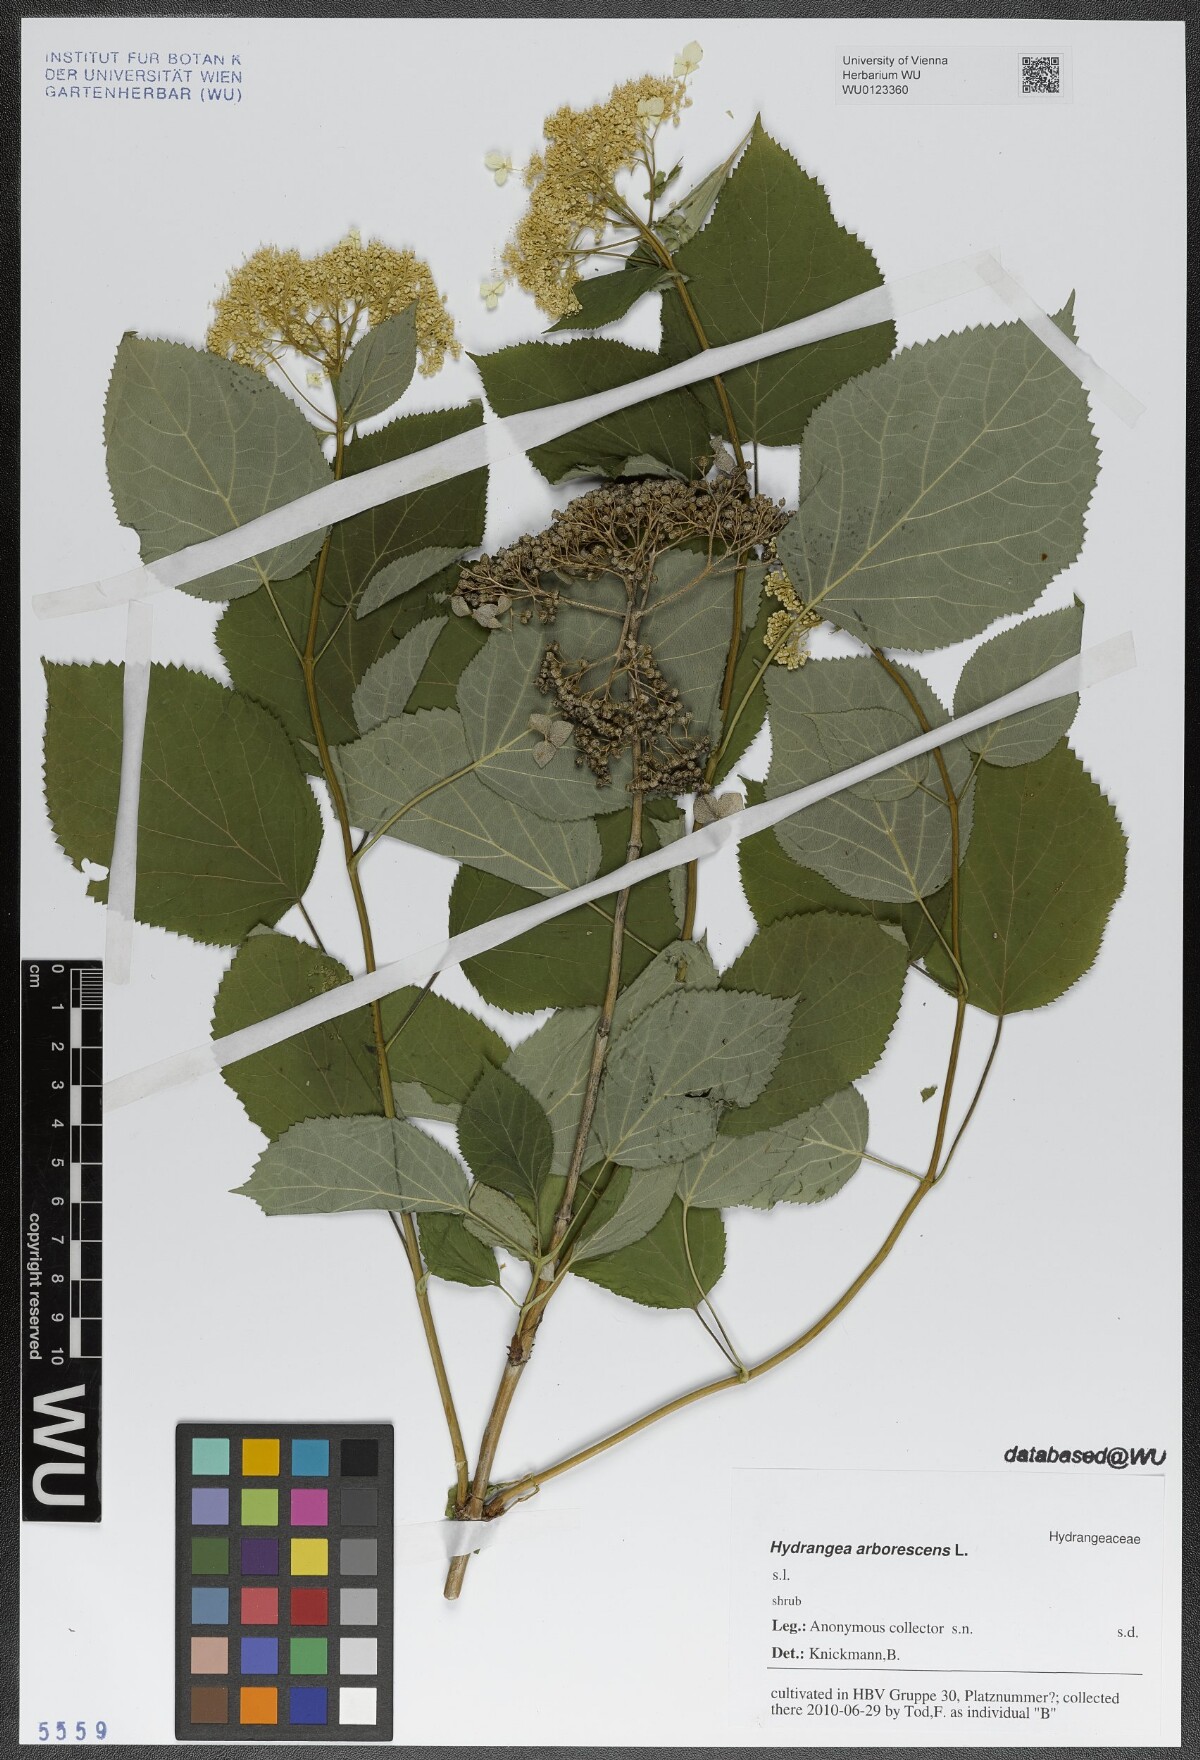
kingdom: Plantae
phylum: Tracheophyta
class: Magnoliopsida
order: Cornales
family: Hydrangeaceae
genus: Hydrangea
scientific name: Hydrangea arborescens
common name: Sevenbark
